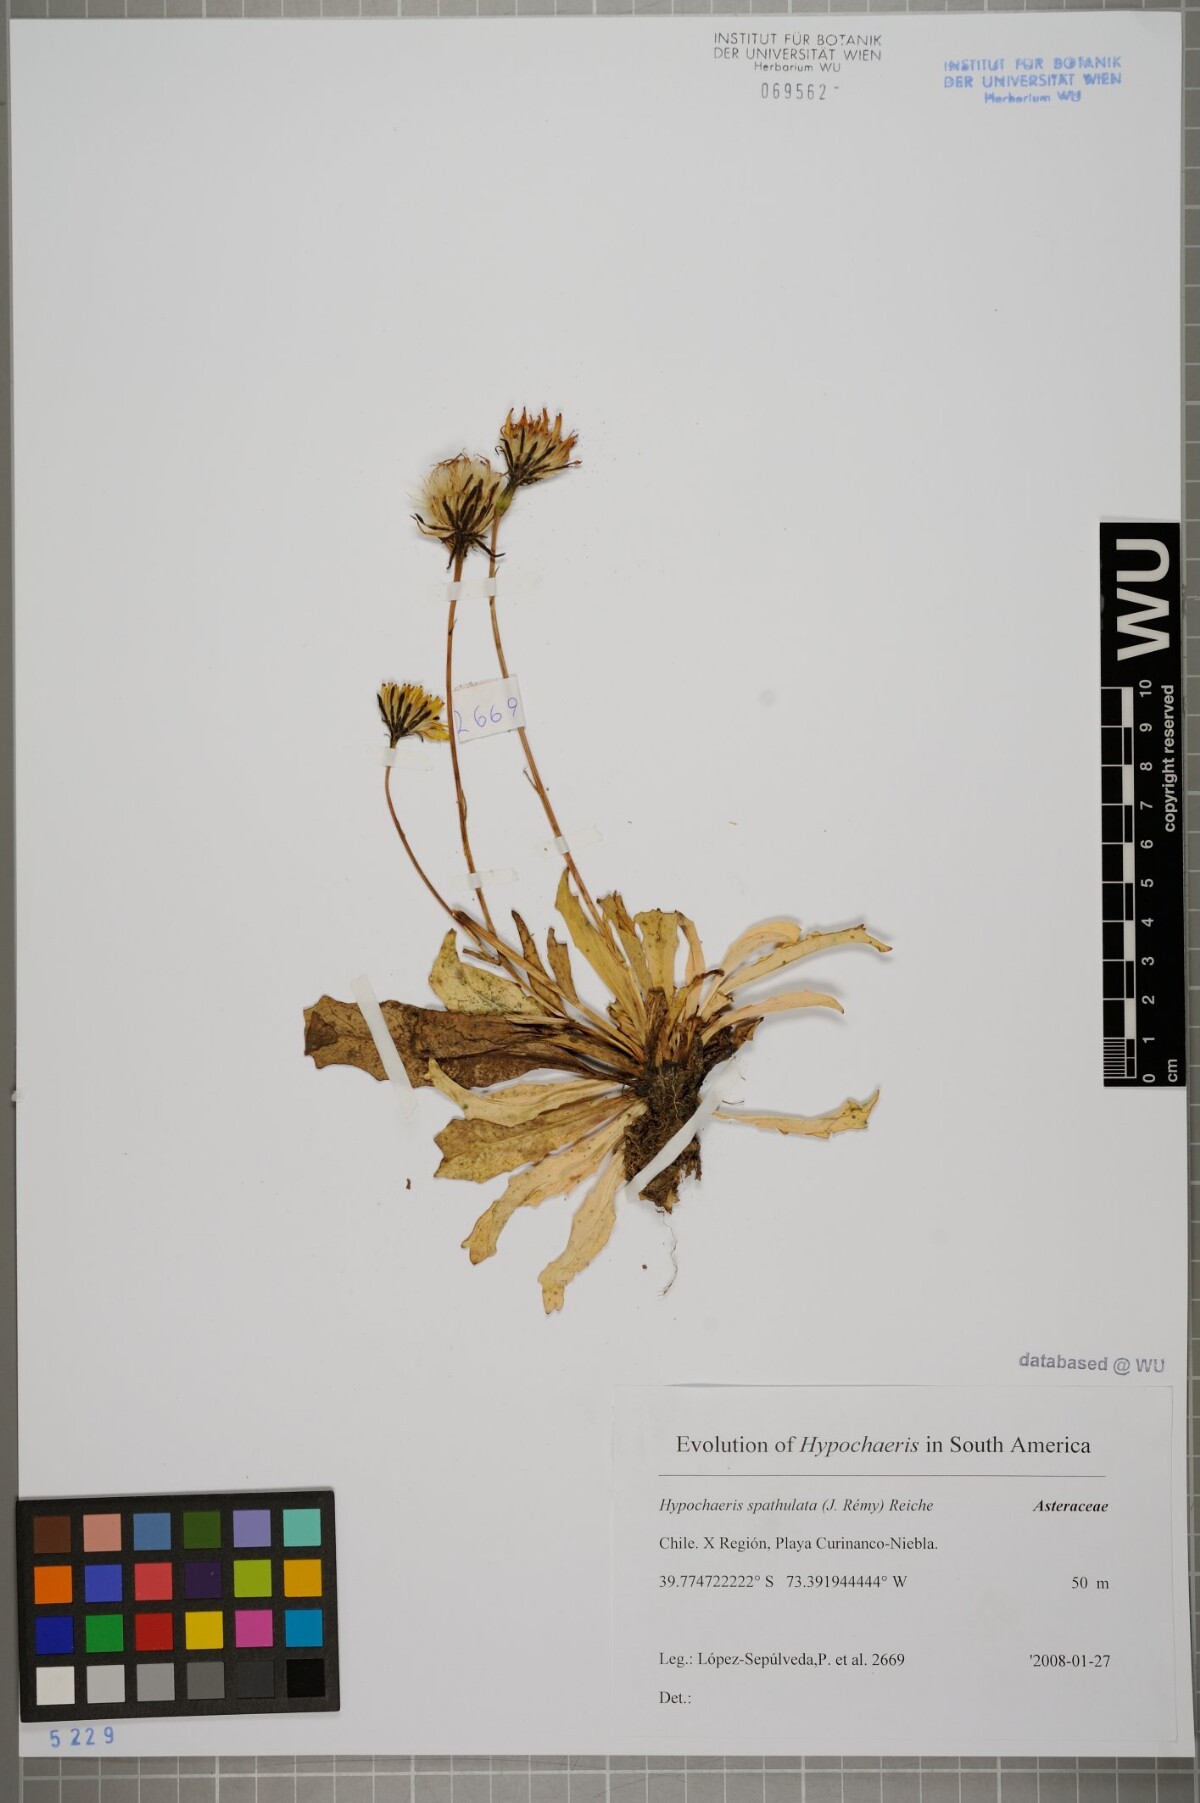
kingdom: Plantae
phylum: Tracheophyta
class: Magnoliopsida
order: Asterales
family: Asteraceae
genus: Hypochaeris
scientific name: Hypochaeris spathulata
